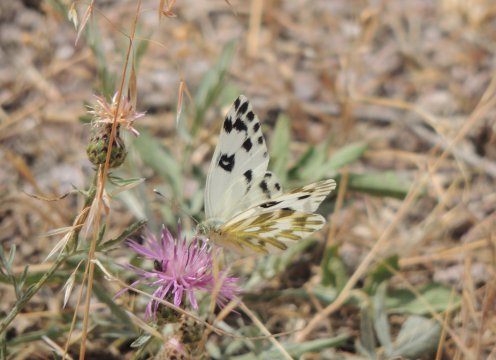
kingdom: Animalia
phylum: Arthropoda
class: Insecta
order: Lepidoptera
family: Pieridae
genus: Pontia
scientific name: Pontia beckerii
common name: Becker's White
